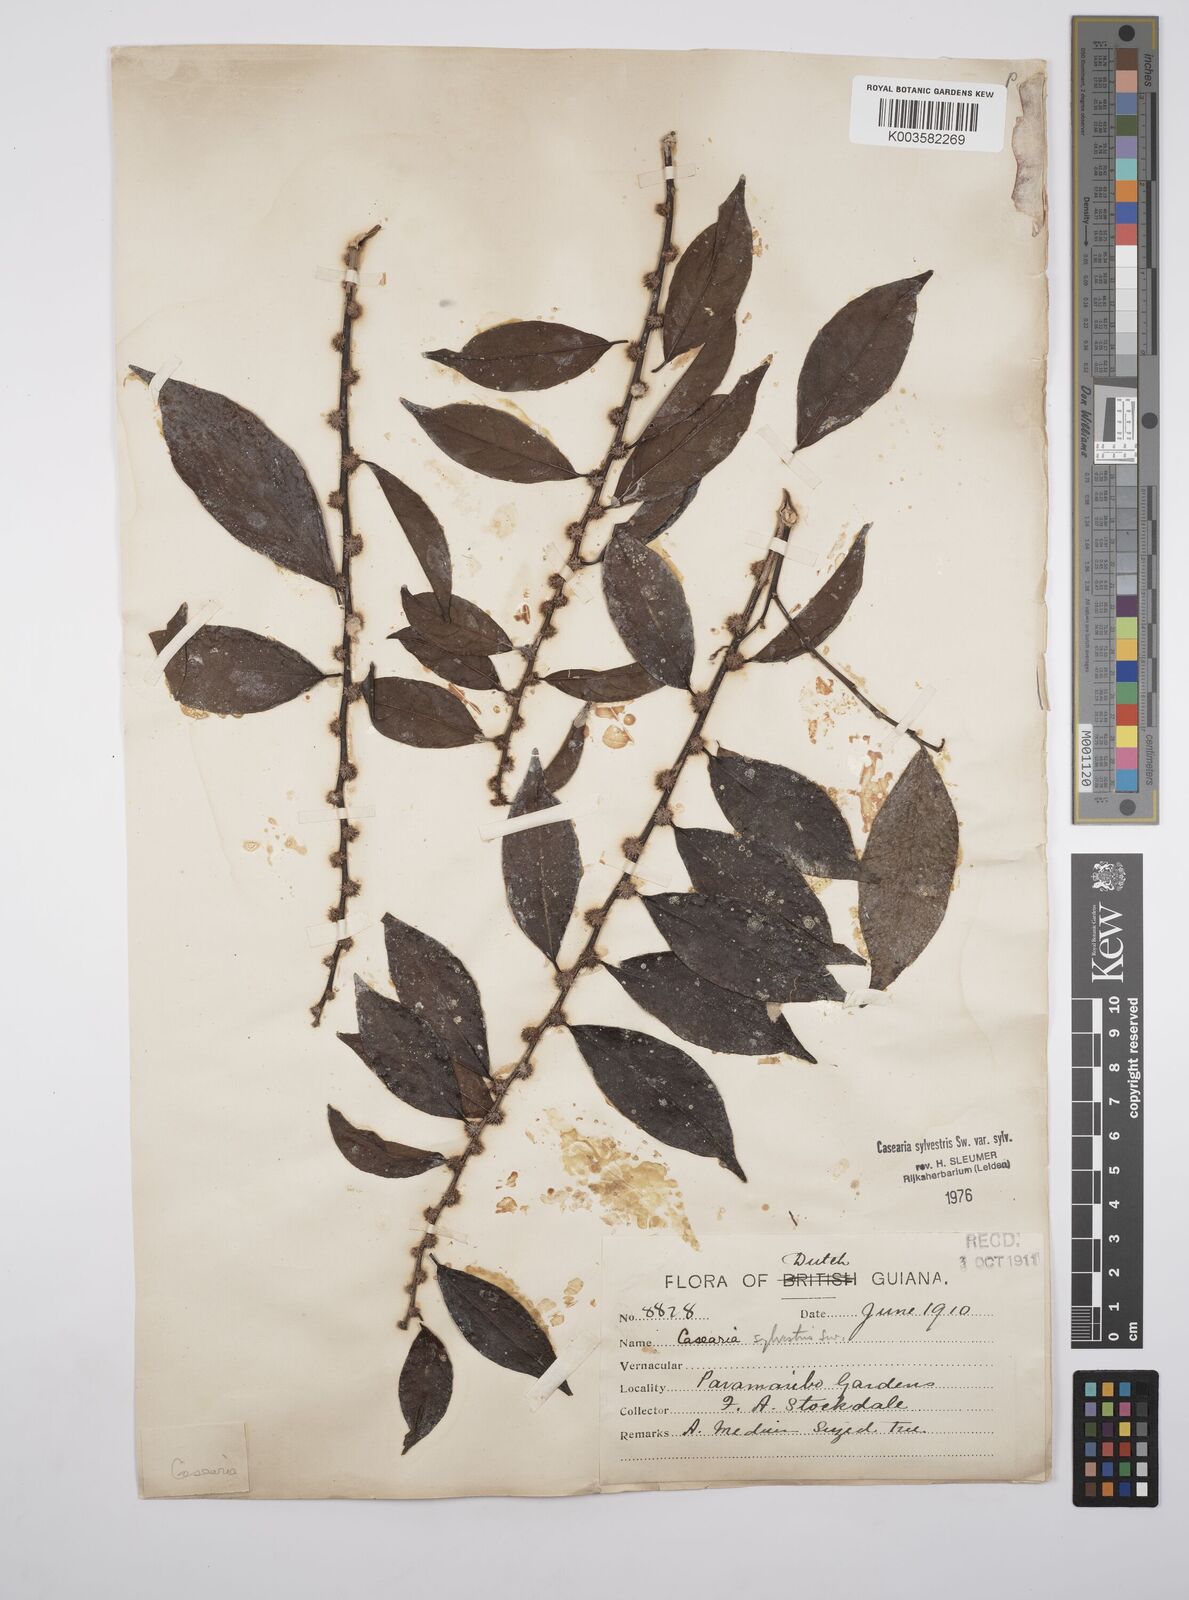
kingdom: Plantae
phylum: Tracheophyta
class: Magnoliopsida
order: Malpighiales
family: Salicaceae
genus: Casearia
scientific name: Casearia sylvestris
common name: Wild sage
